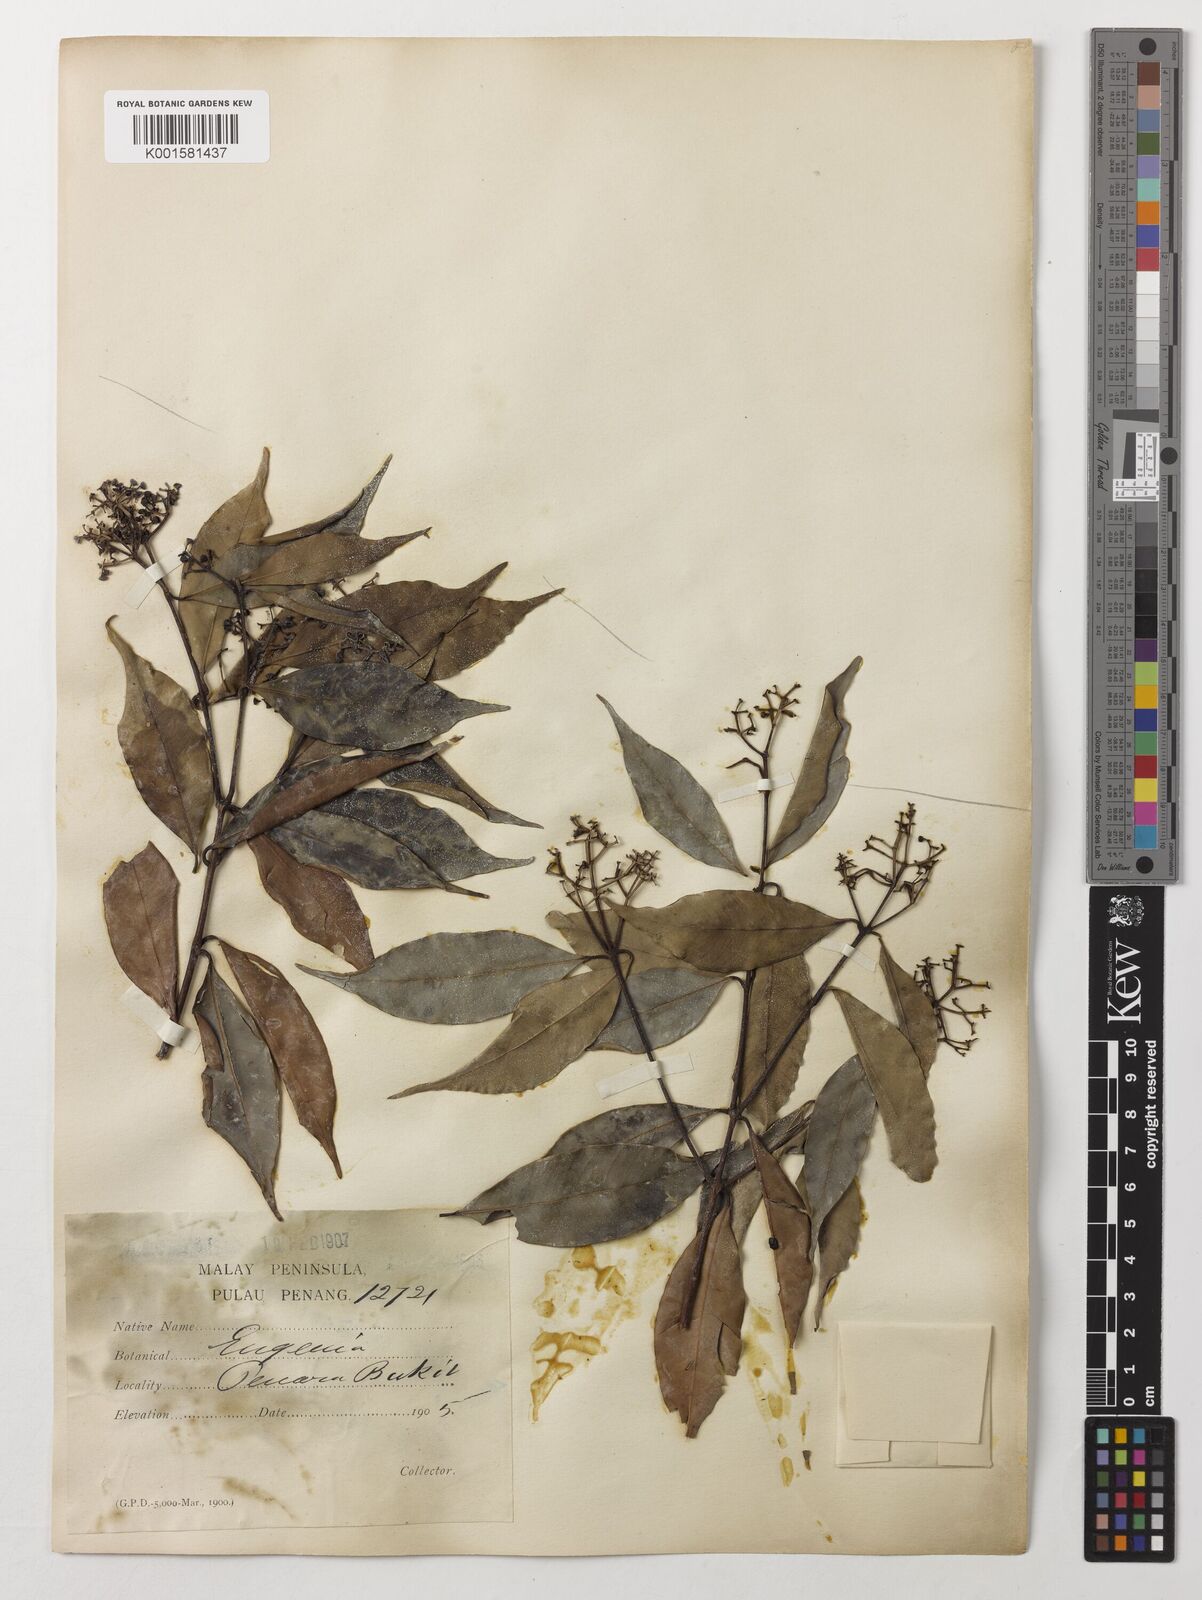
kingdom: Plantae
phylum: Tracheophyta
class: Magnoliopsida
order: Myrtales
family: Myrtaceae
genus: Eugenia
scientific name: Eugenia
